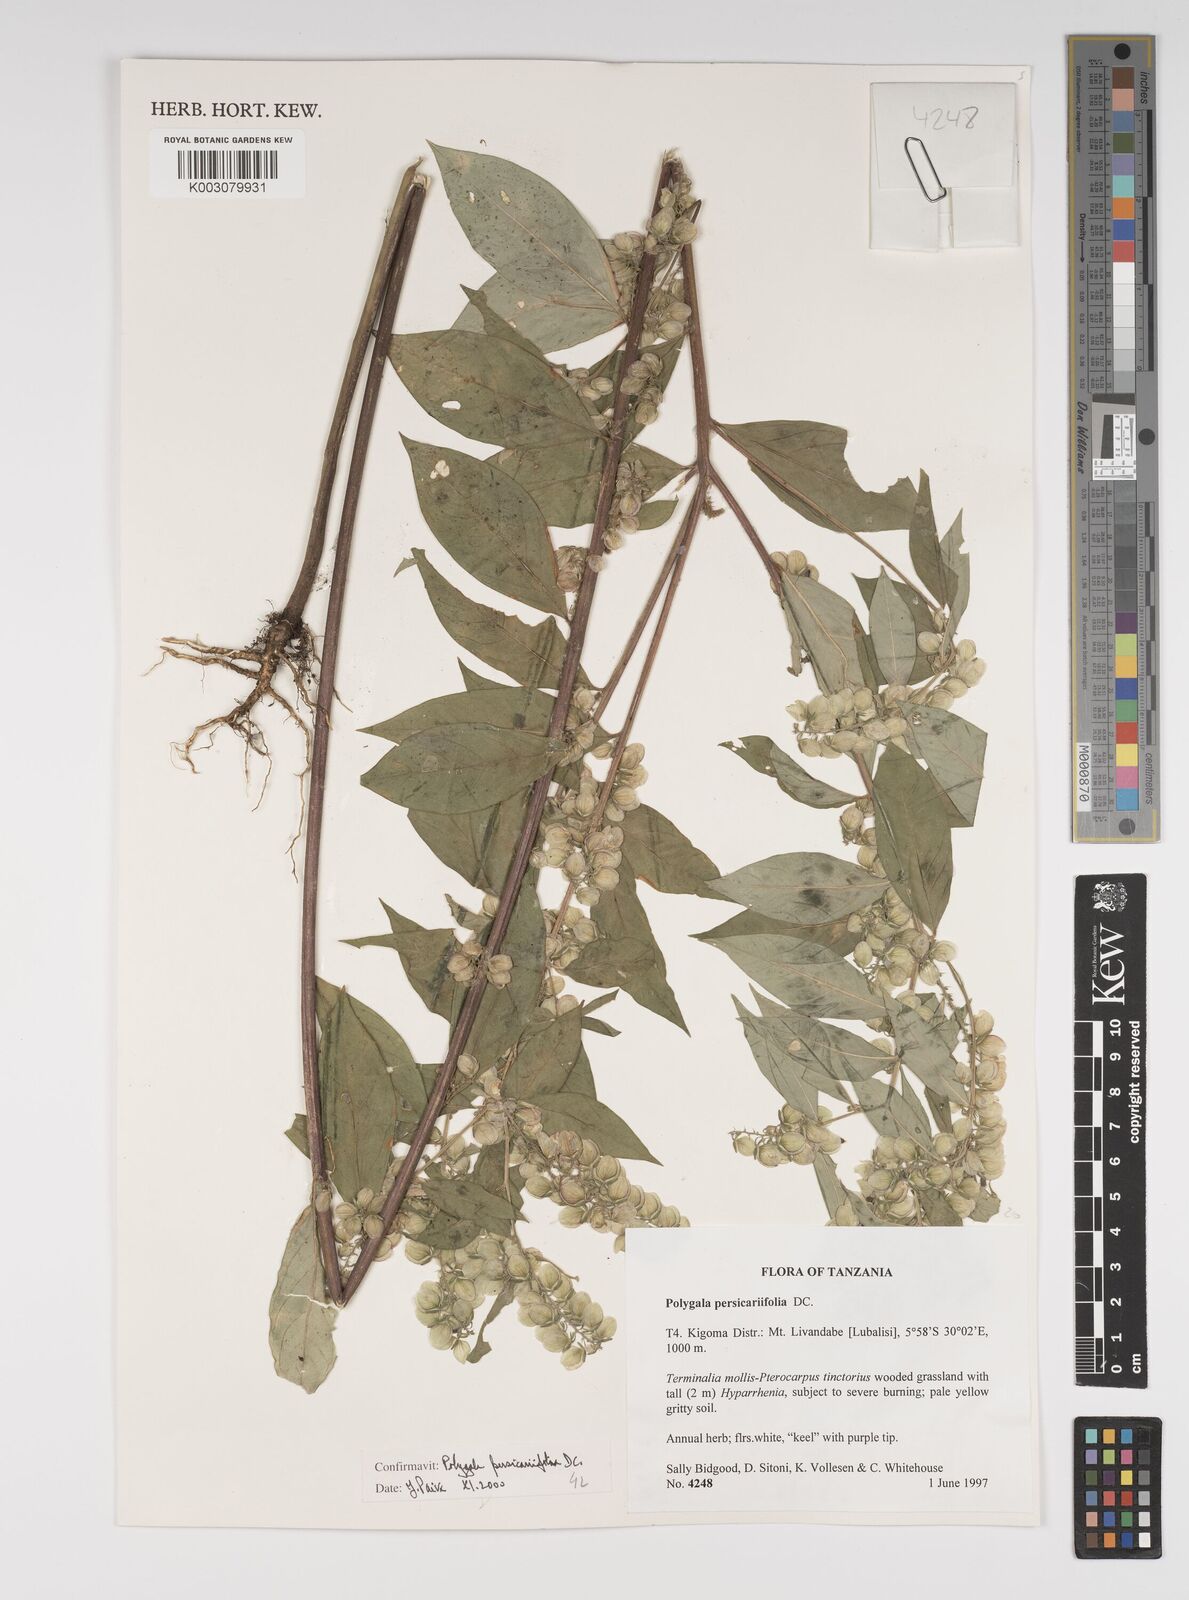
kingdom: Plantae
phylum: Tracheophyta
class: Magnoliopsida
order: Fabales
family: Polygalaceae
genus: Polygala
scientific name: Polygala persicariifolia
